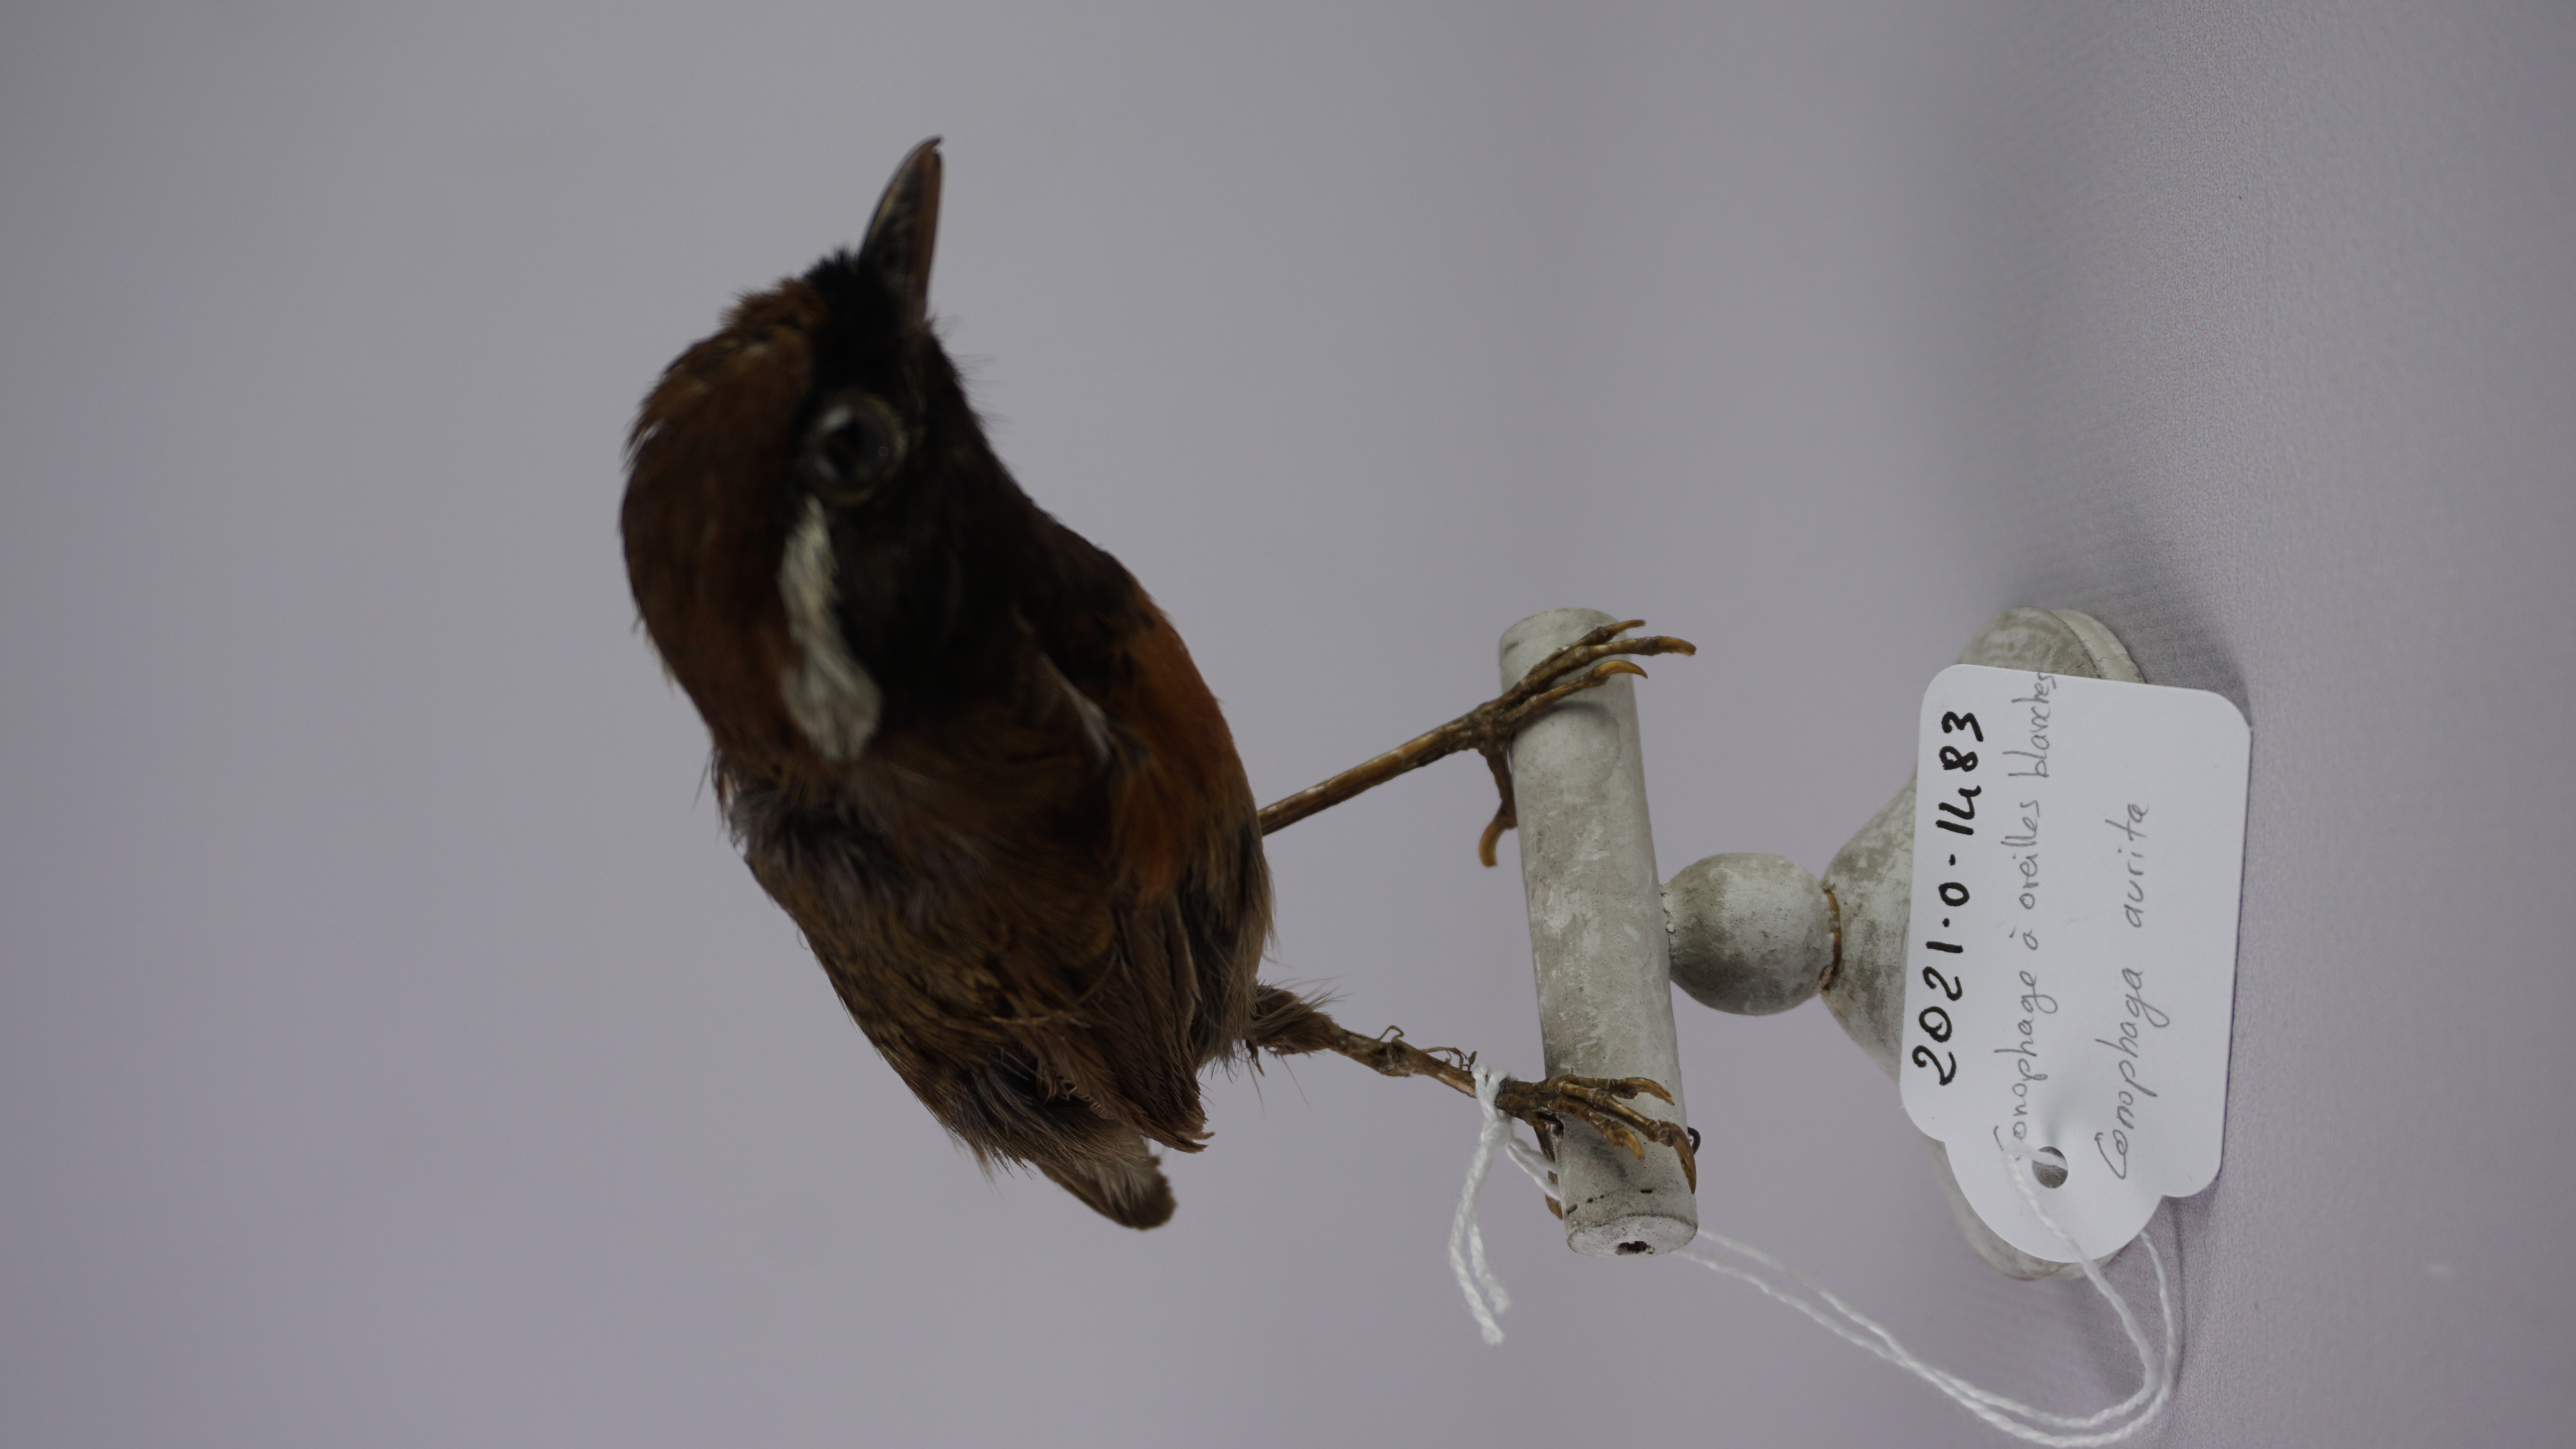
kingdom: Animalia
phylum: Chordata
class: Aves
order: Passeriformes
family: Conopophagidae
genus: Conopophaga
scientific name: Conopophaga aurita
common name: Chestnut-belted gnateater
